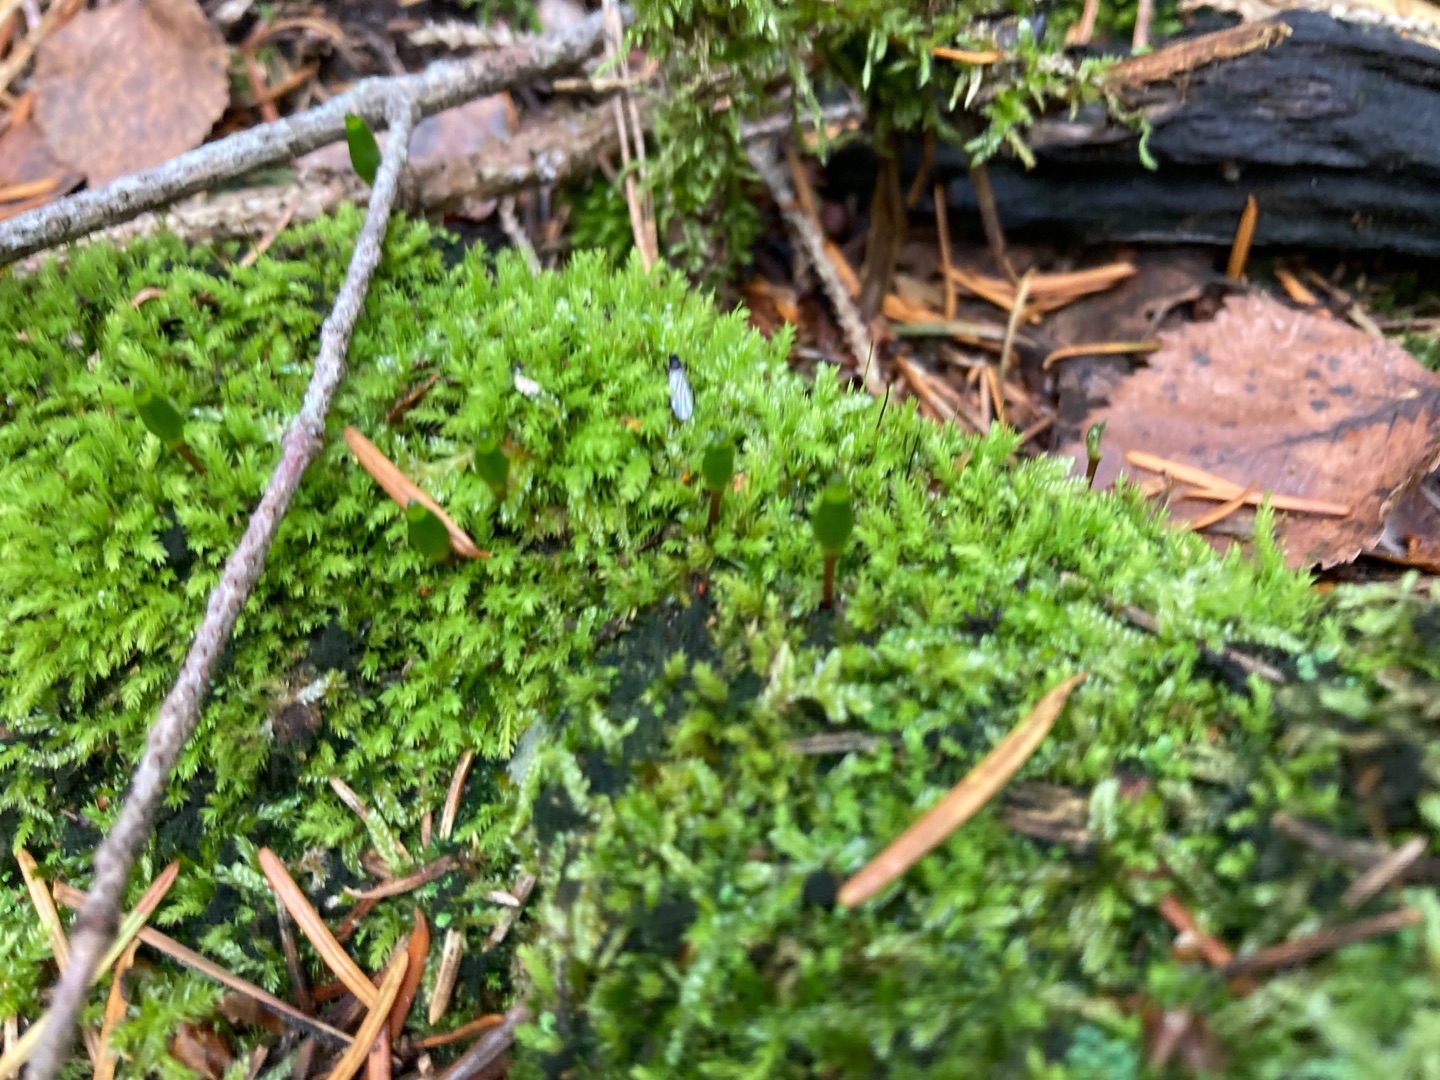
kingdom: Plantae
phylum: Bryophyta
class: Bryopsida
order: Buxbaumiales
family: Buxbaumiaceae
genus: Buxbaumia
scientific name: Buxbaumia viridis
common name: Grøn buxbaumia
